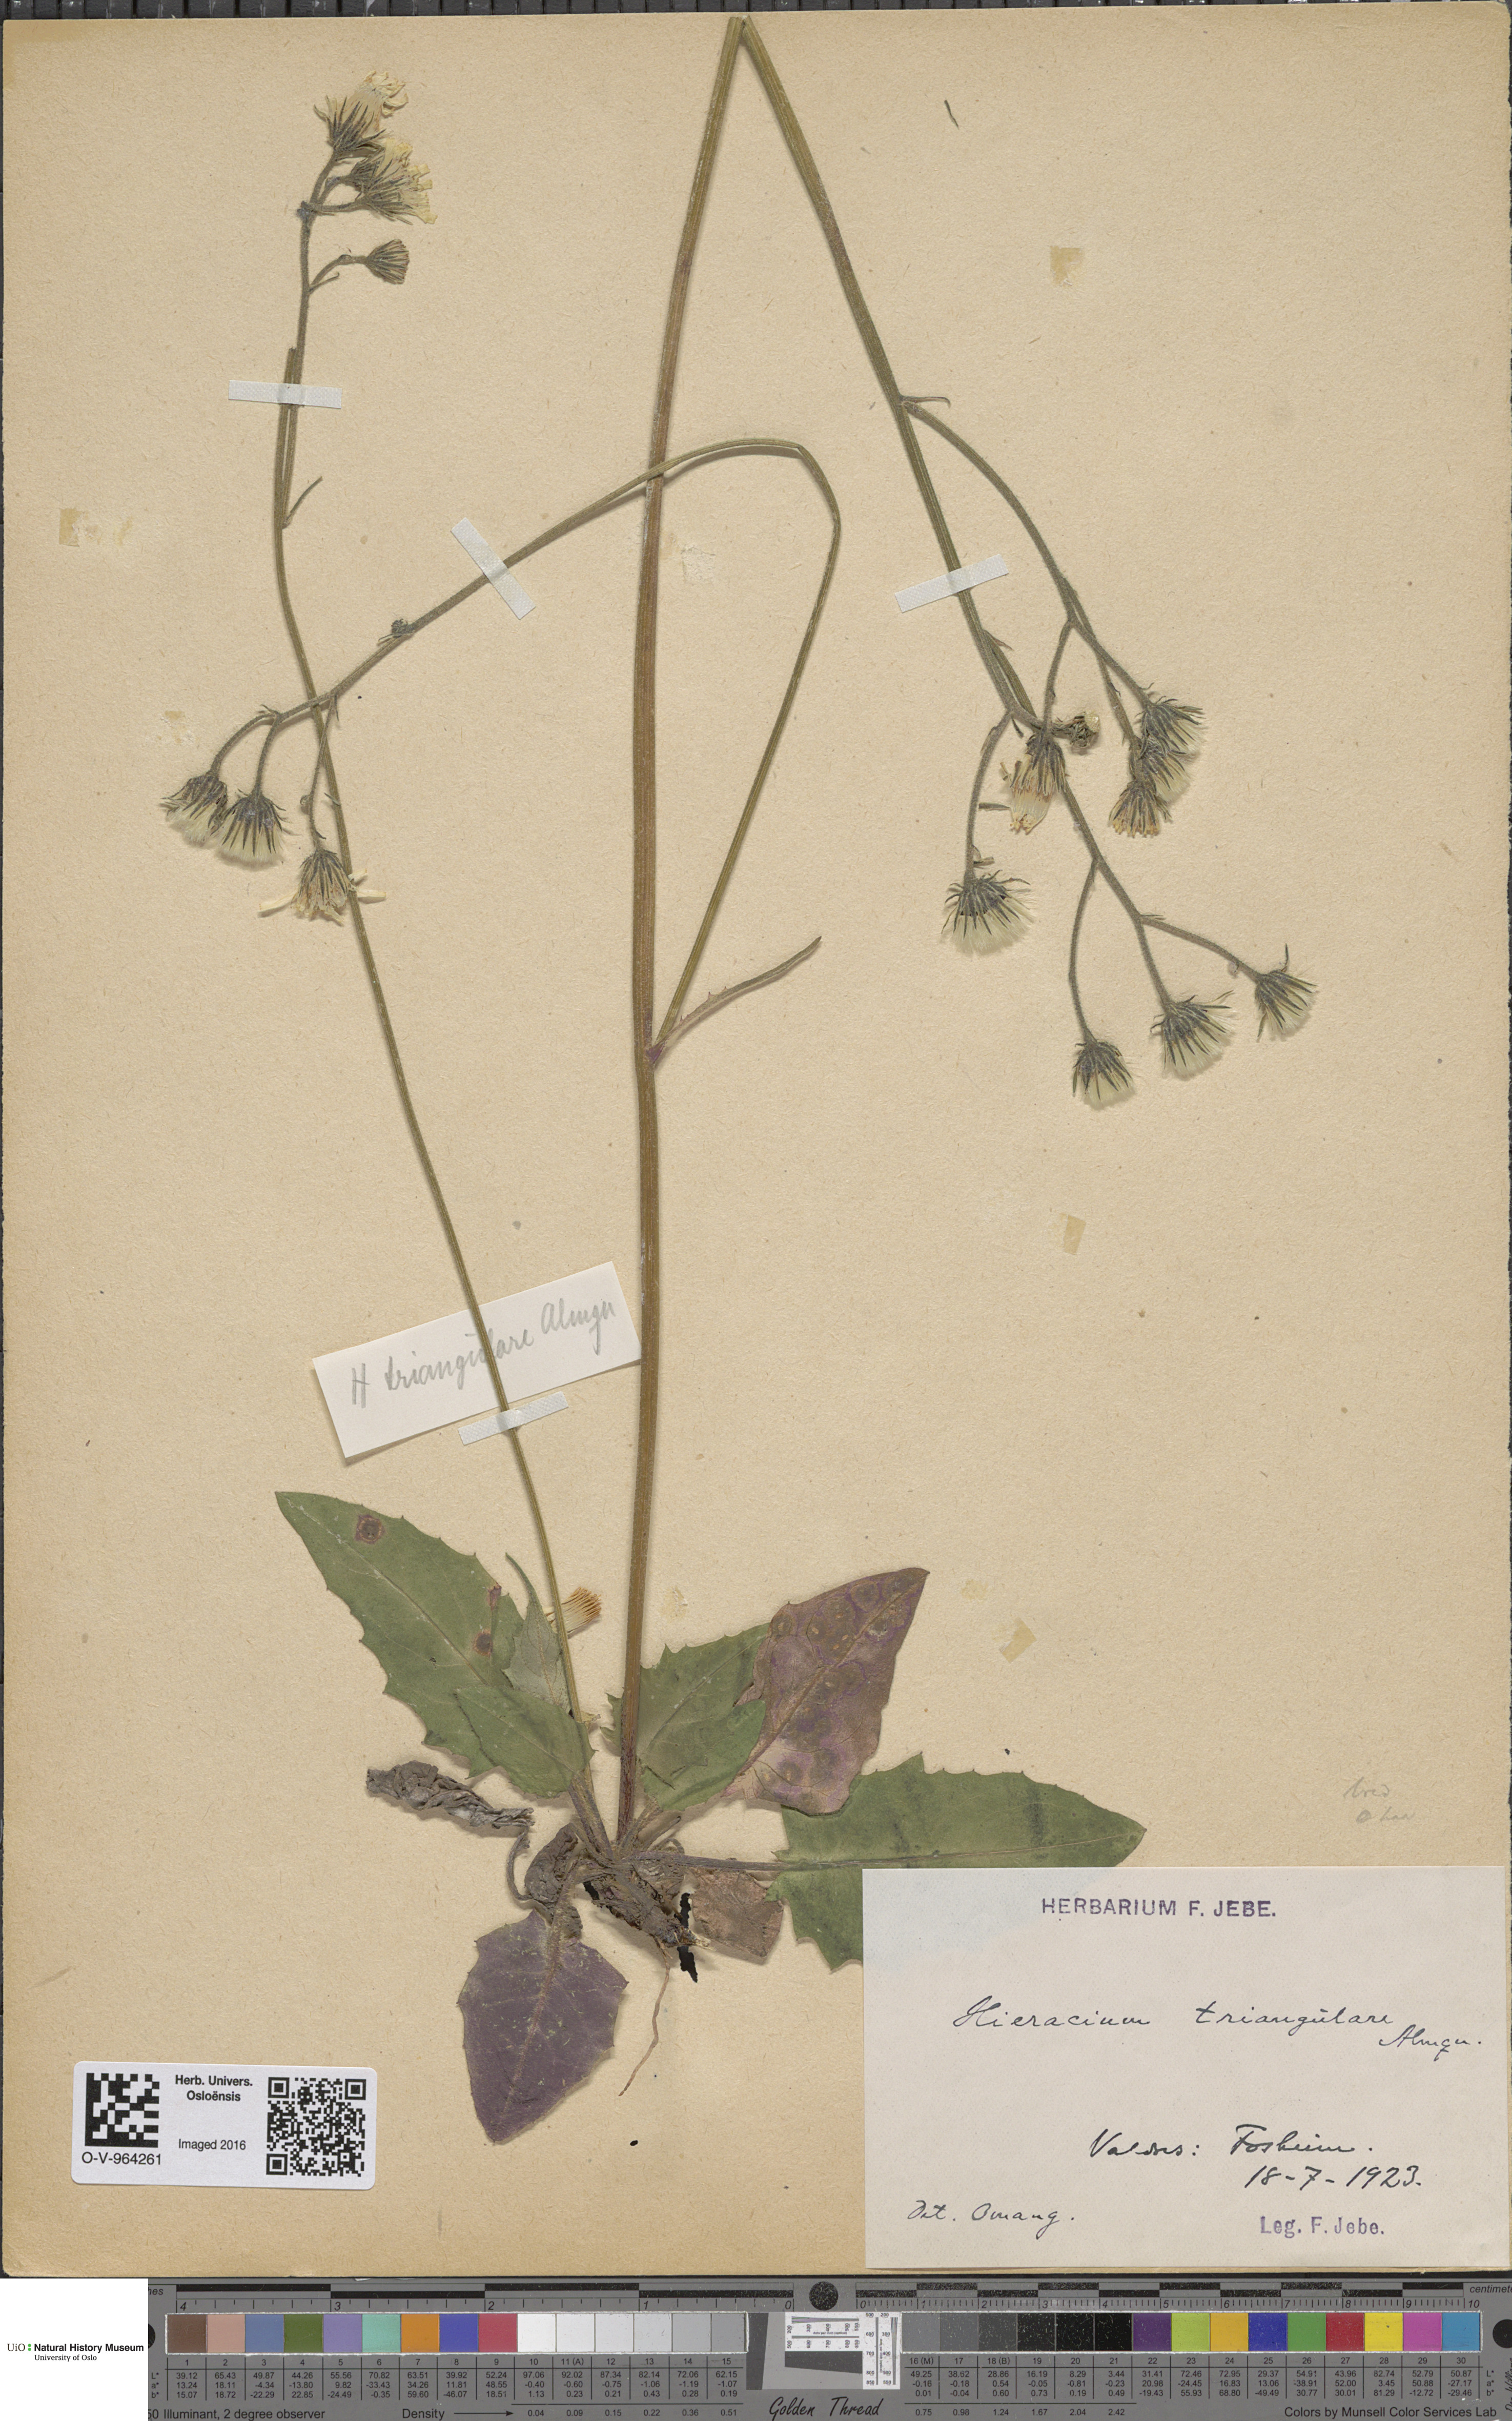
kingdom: Plantae
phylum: Tracheophyta
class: Magnoliopsida
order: Asterales
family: Asteraceae
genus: Hieracium
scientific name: Hieracium triangulare
